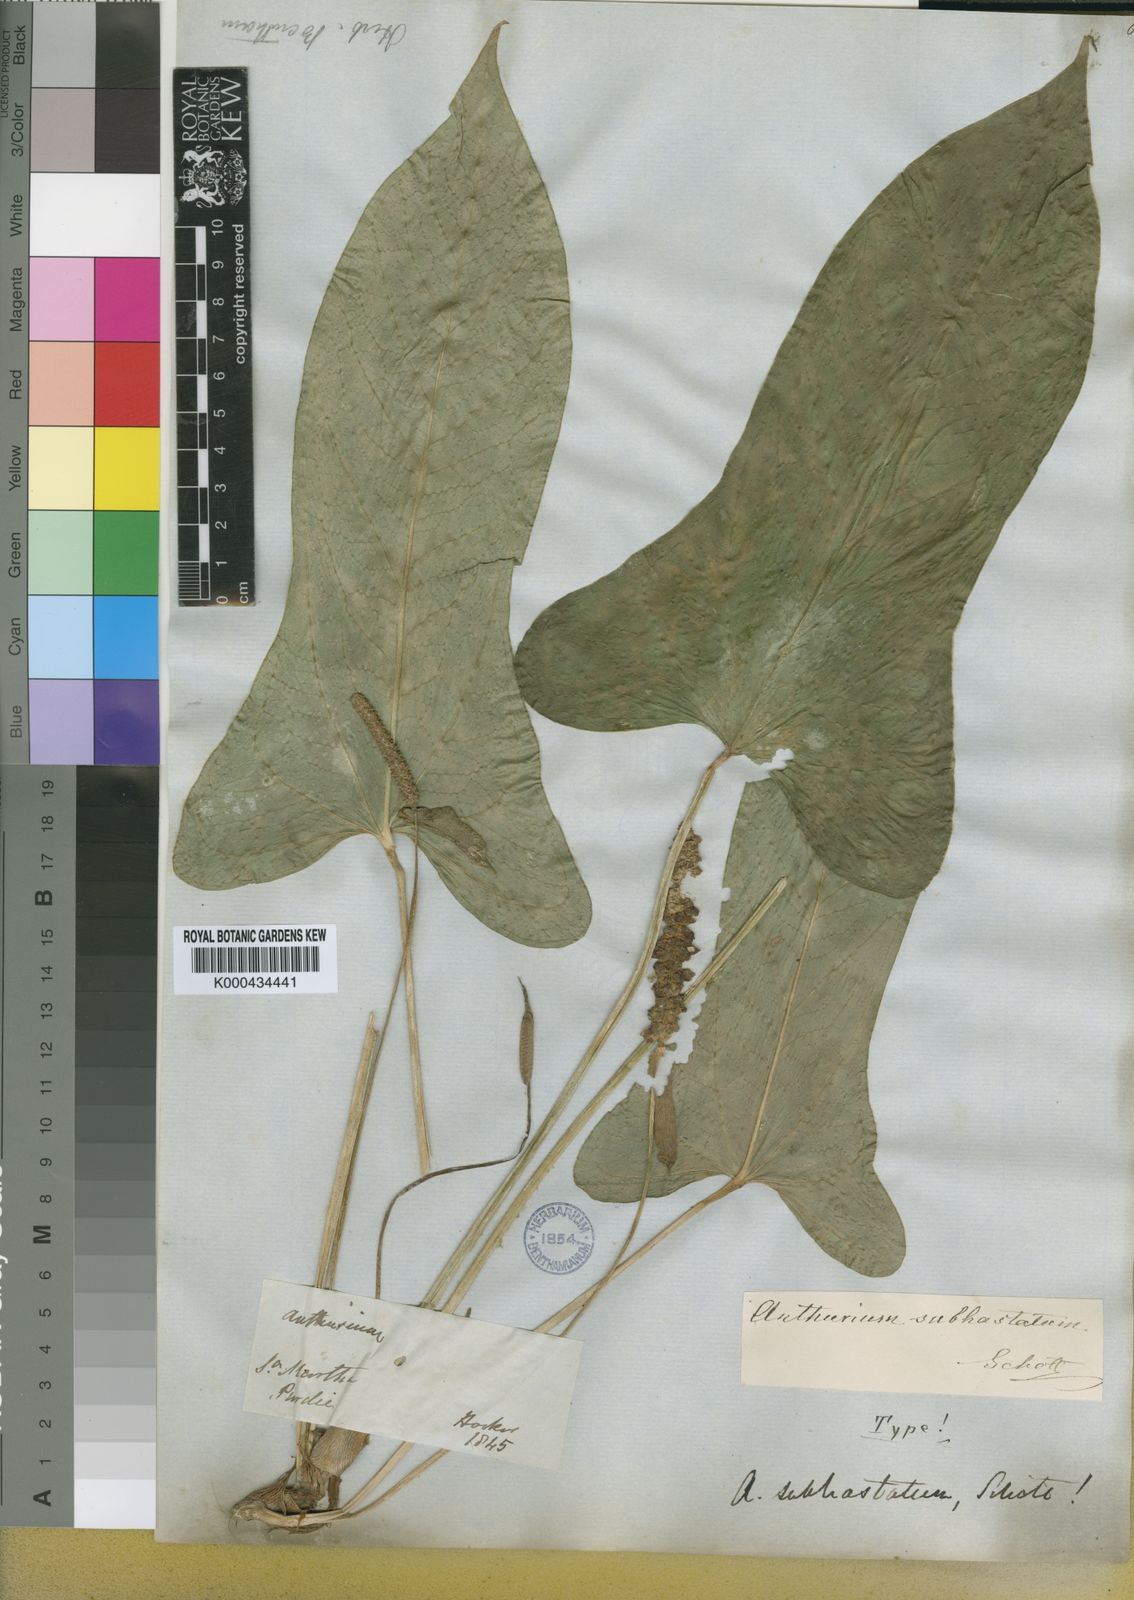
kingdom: Plantae
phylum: Tracheophyta
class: Liliopsida
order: Alismatales
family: Araceae
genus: Anthurium
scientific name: Anthurium subhastatum
